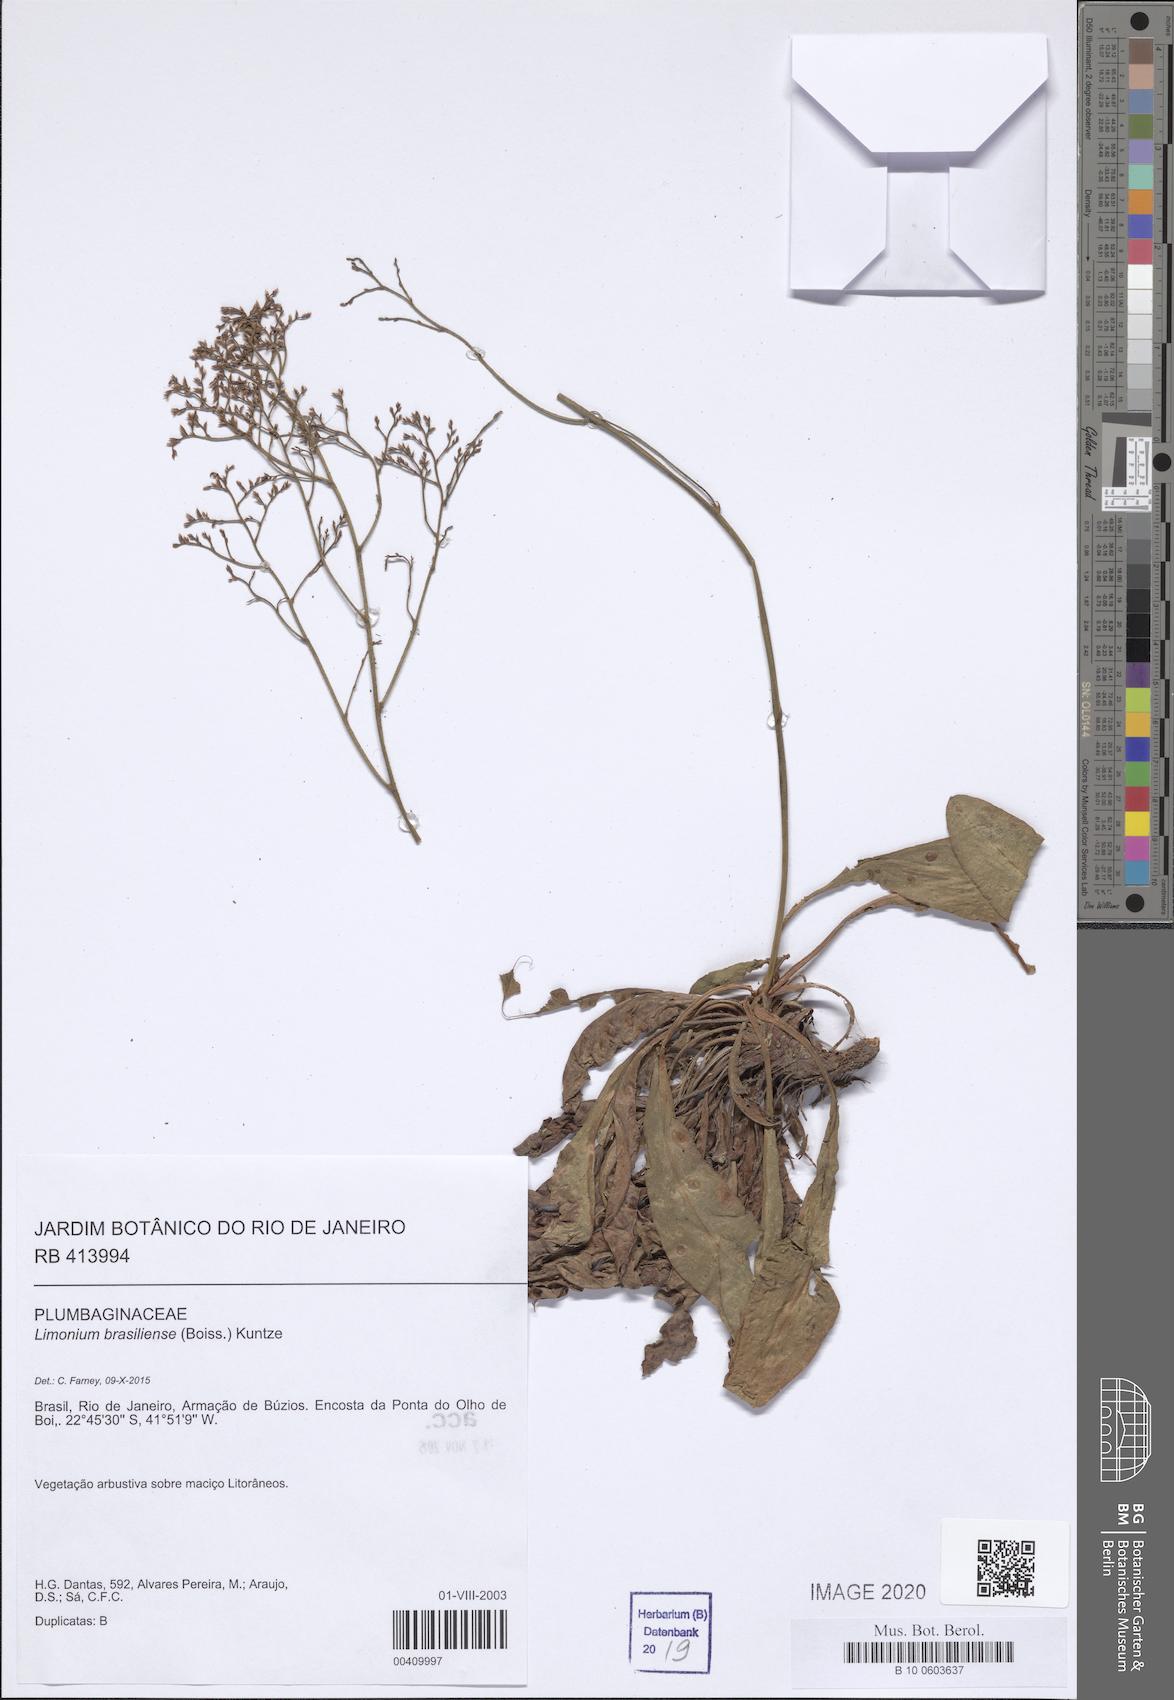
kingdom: Plantae
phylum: Tracheophyta
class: Magnoliopsida
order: Caryophyllales
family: Plumbaginaceae
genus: Limonium
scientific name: Limonium brasiliense
